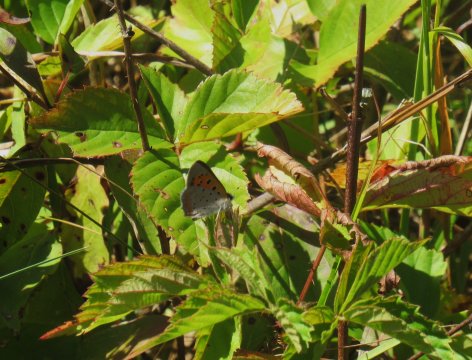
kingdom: Animalia
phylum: Arthropoda
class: Insecta
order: Lepidoptera
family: Lycaenidae
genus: Lycaena
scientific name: Lycaena phlaeas
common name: American Copper
